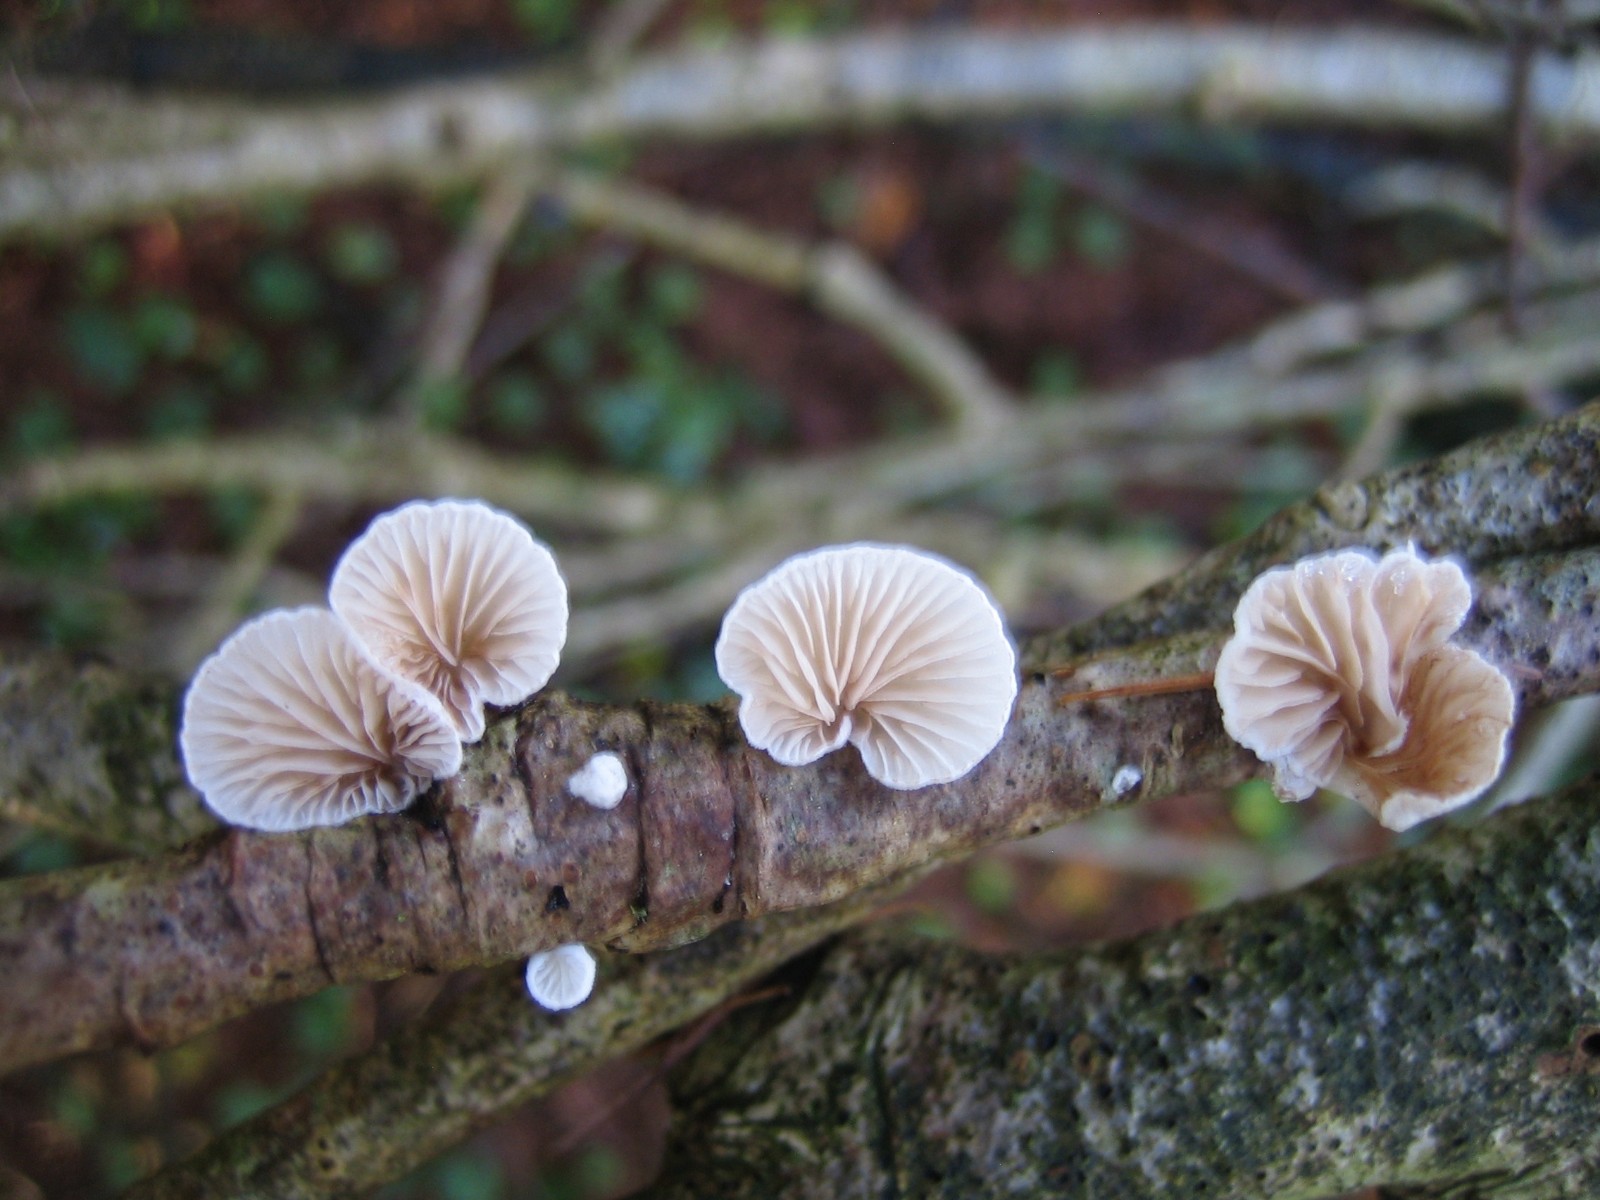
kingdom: Fungi
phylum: Basidiomycota
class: Agaricomycetes
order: Agaricales
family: Crepidotaceae
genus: Crepidotus
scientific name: Crepidotus
